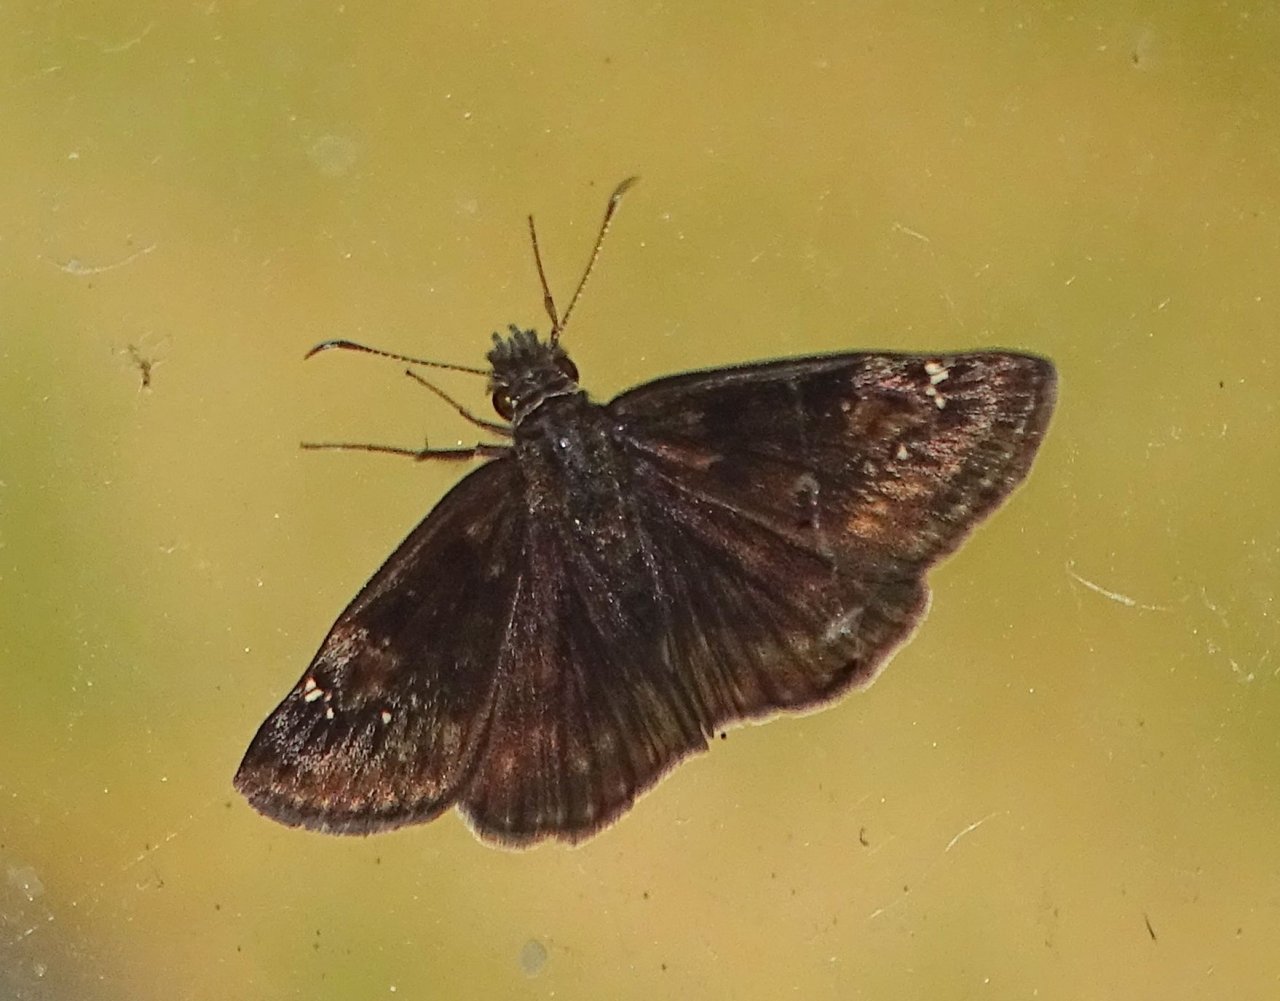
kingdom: Animalia
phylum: Arthropoda
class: Insecta
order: Lepidoptera
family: Hesperiidae
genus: Gesta
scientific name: Gesta
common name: Wild Indigo Duskywing
